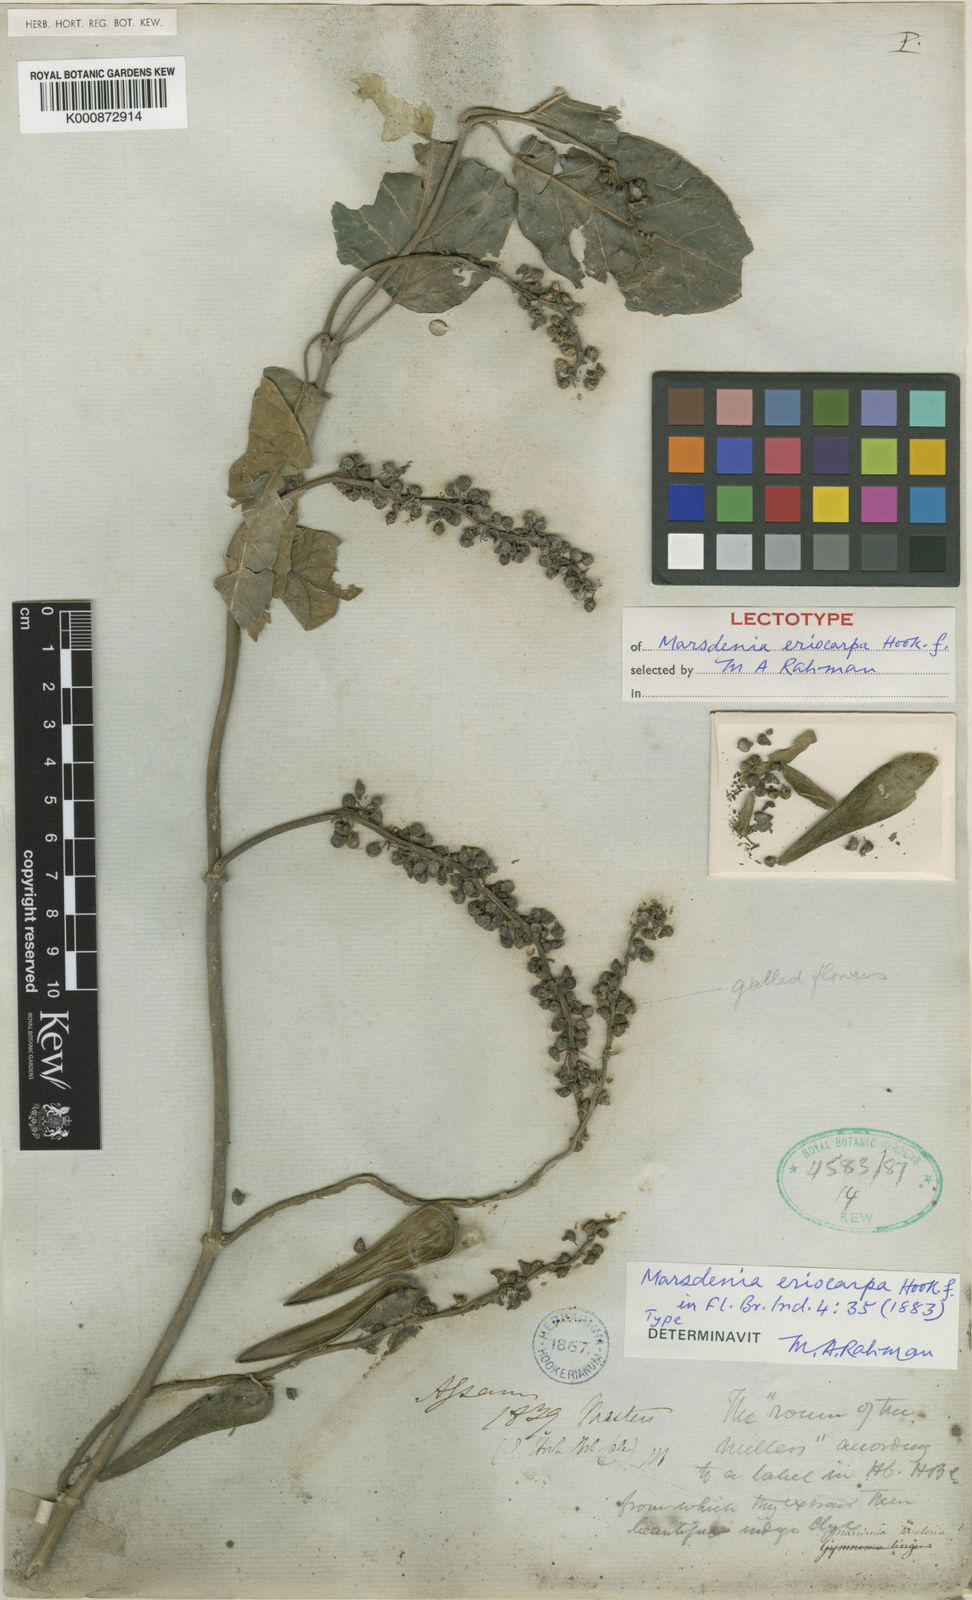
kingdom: Plantae
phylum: Tracheophyta
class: Magnoliopsida
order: Gentianales
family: Apocynaceae
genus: Marsdenia
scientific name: Marsdenia tinctoria
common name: Climbing-indigo
